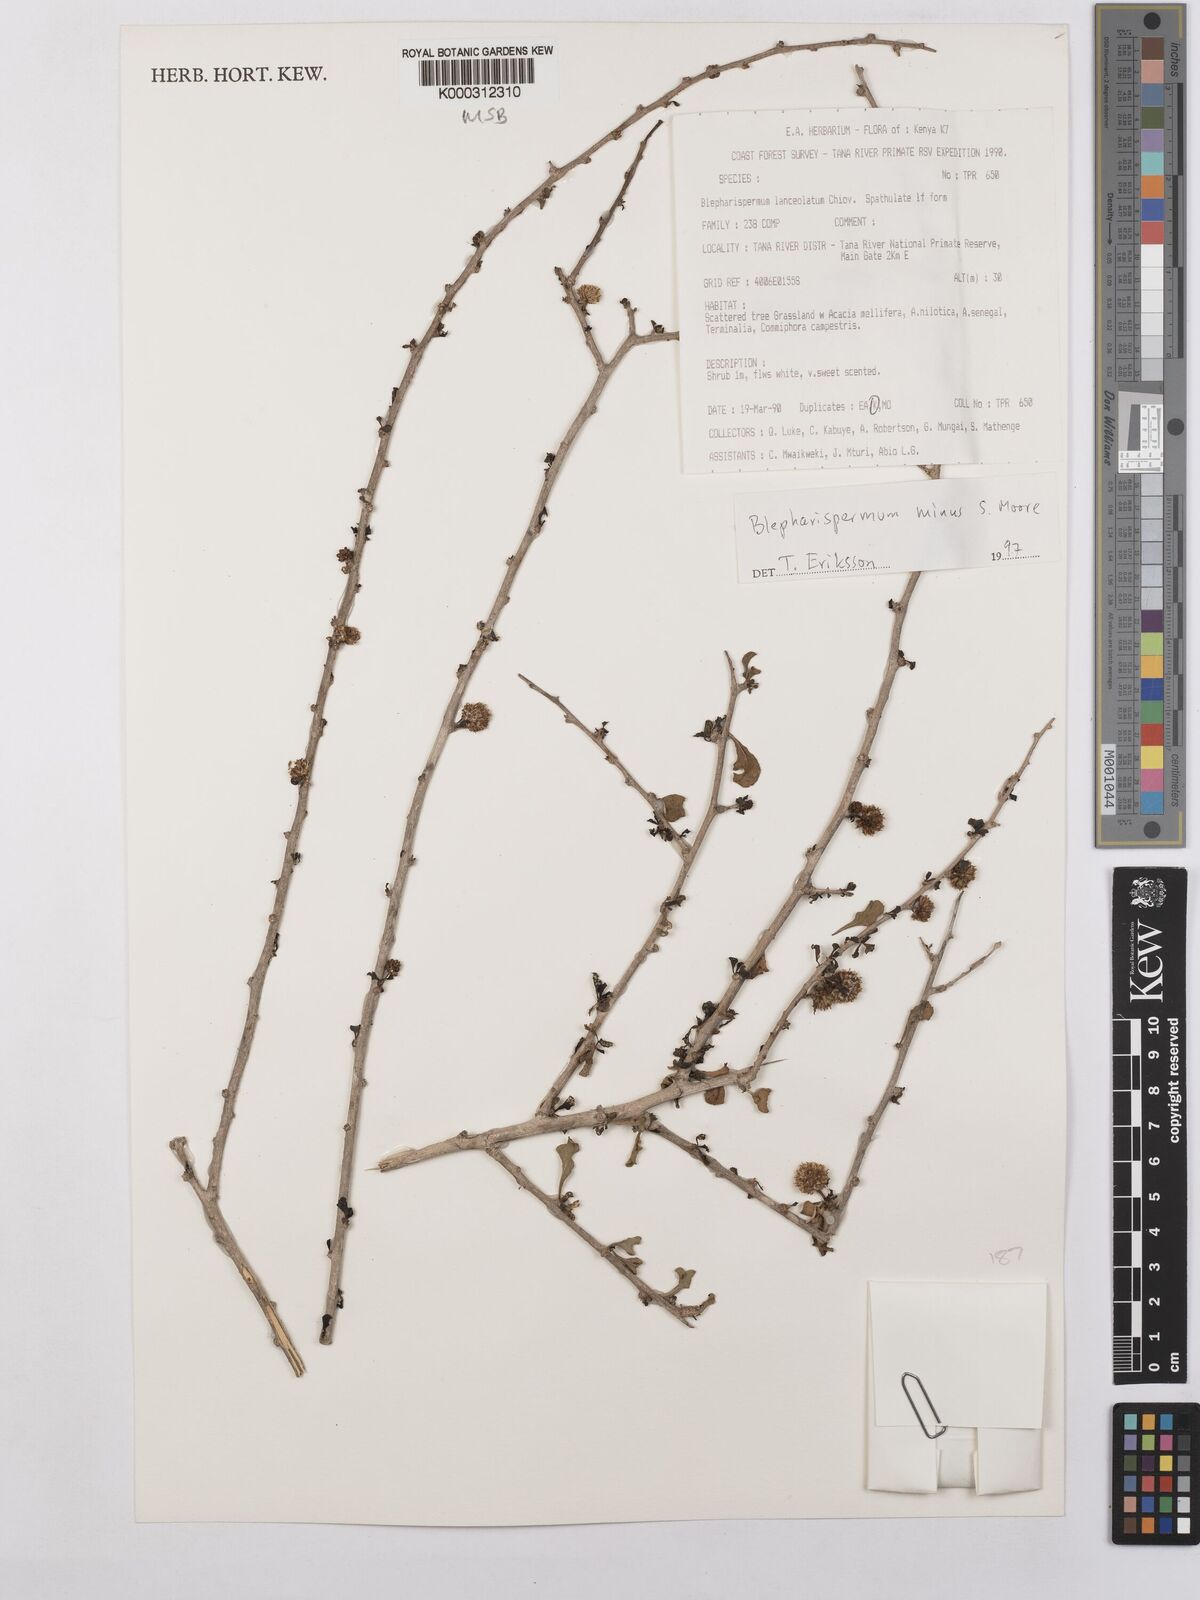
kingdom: Plantae
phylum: Tracheophyta
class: Magnoliopsida
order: Asterales
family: Asteraceae
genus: Blepharispermum
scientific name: Blepharispermum minus
